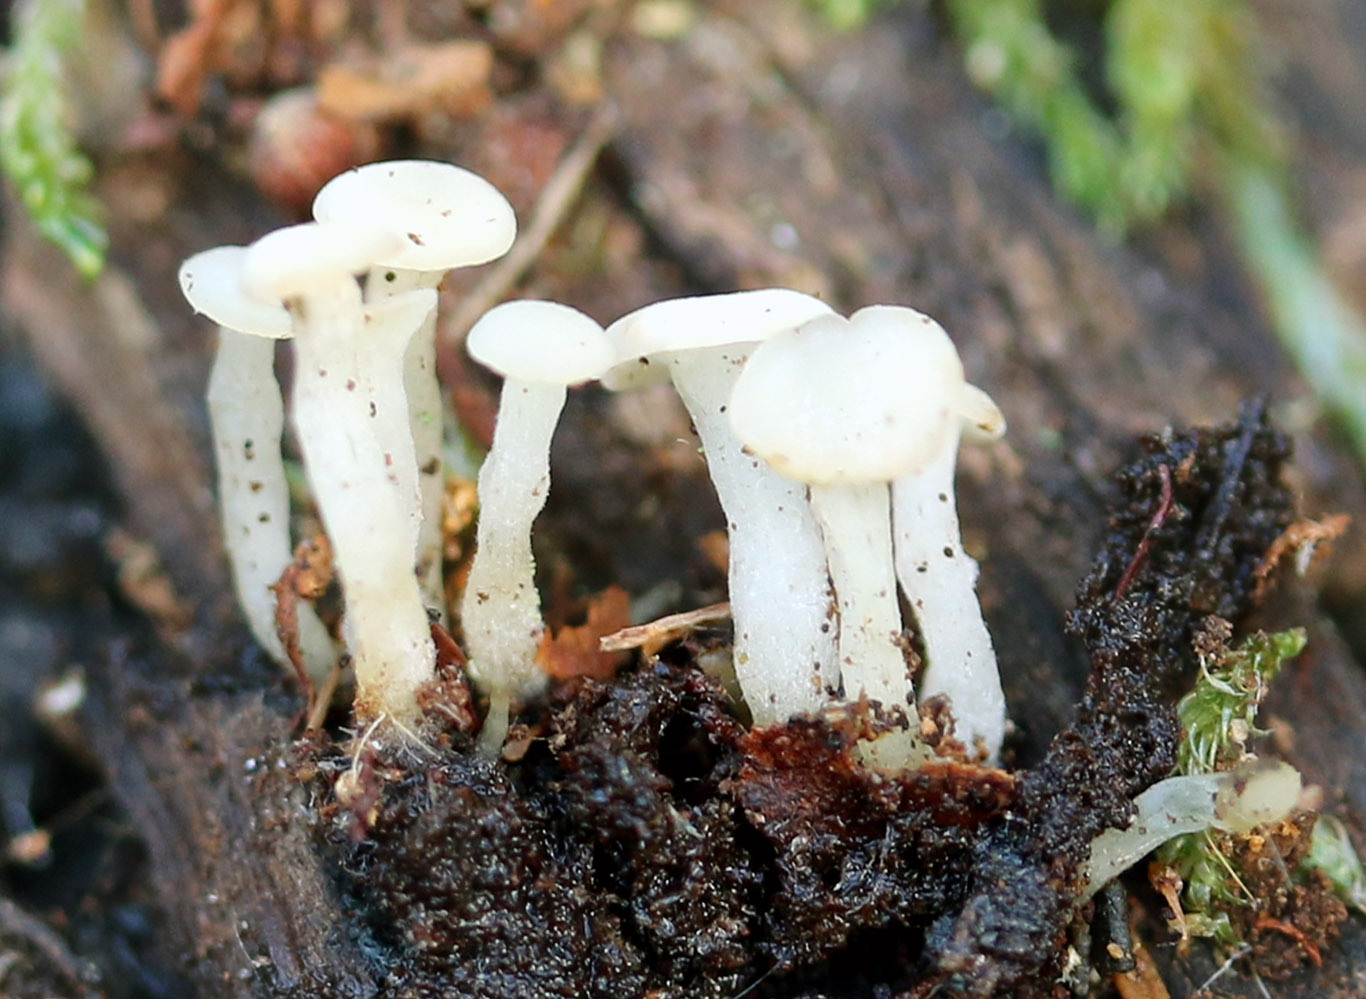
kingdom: Fungi
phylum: Ascomycota
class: Leotiomycetes
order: Helotiales
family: Tricladiaceae
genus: Cudoniella
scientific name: Cudoniella acicularis
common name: ege-dyndskive
